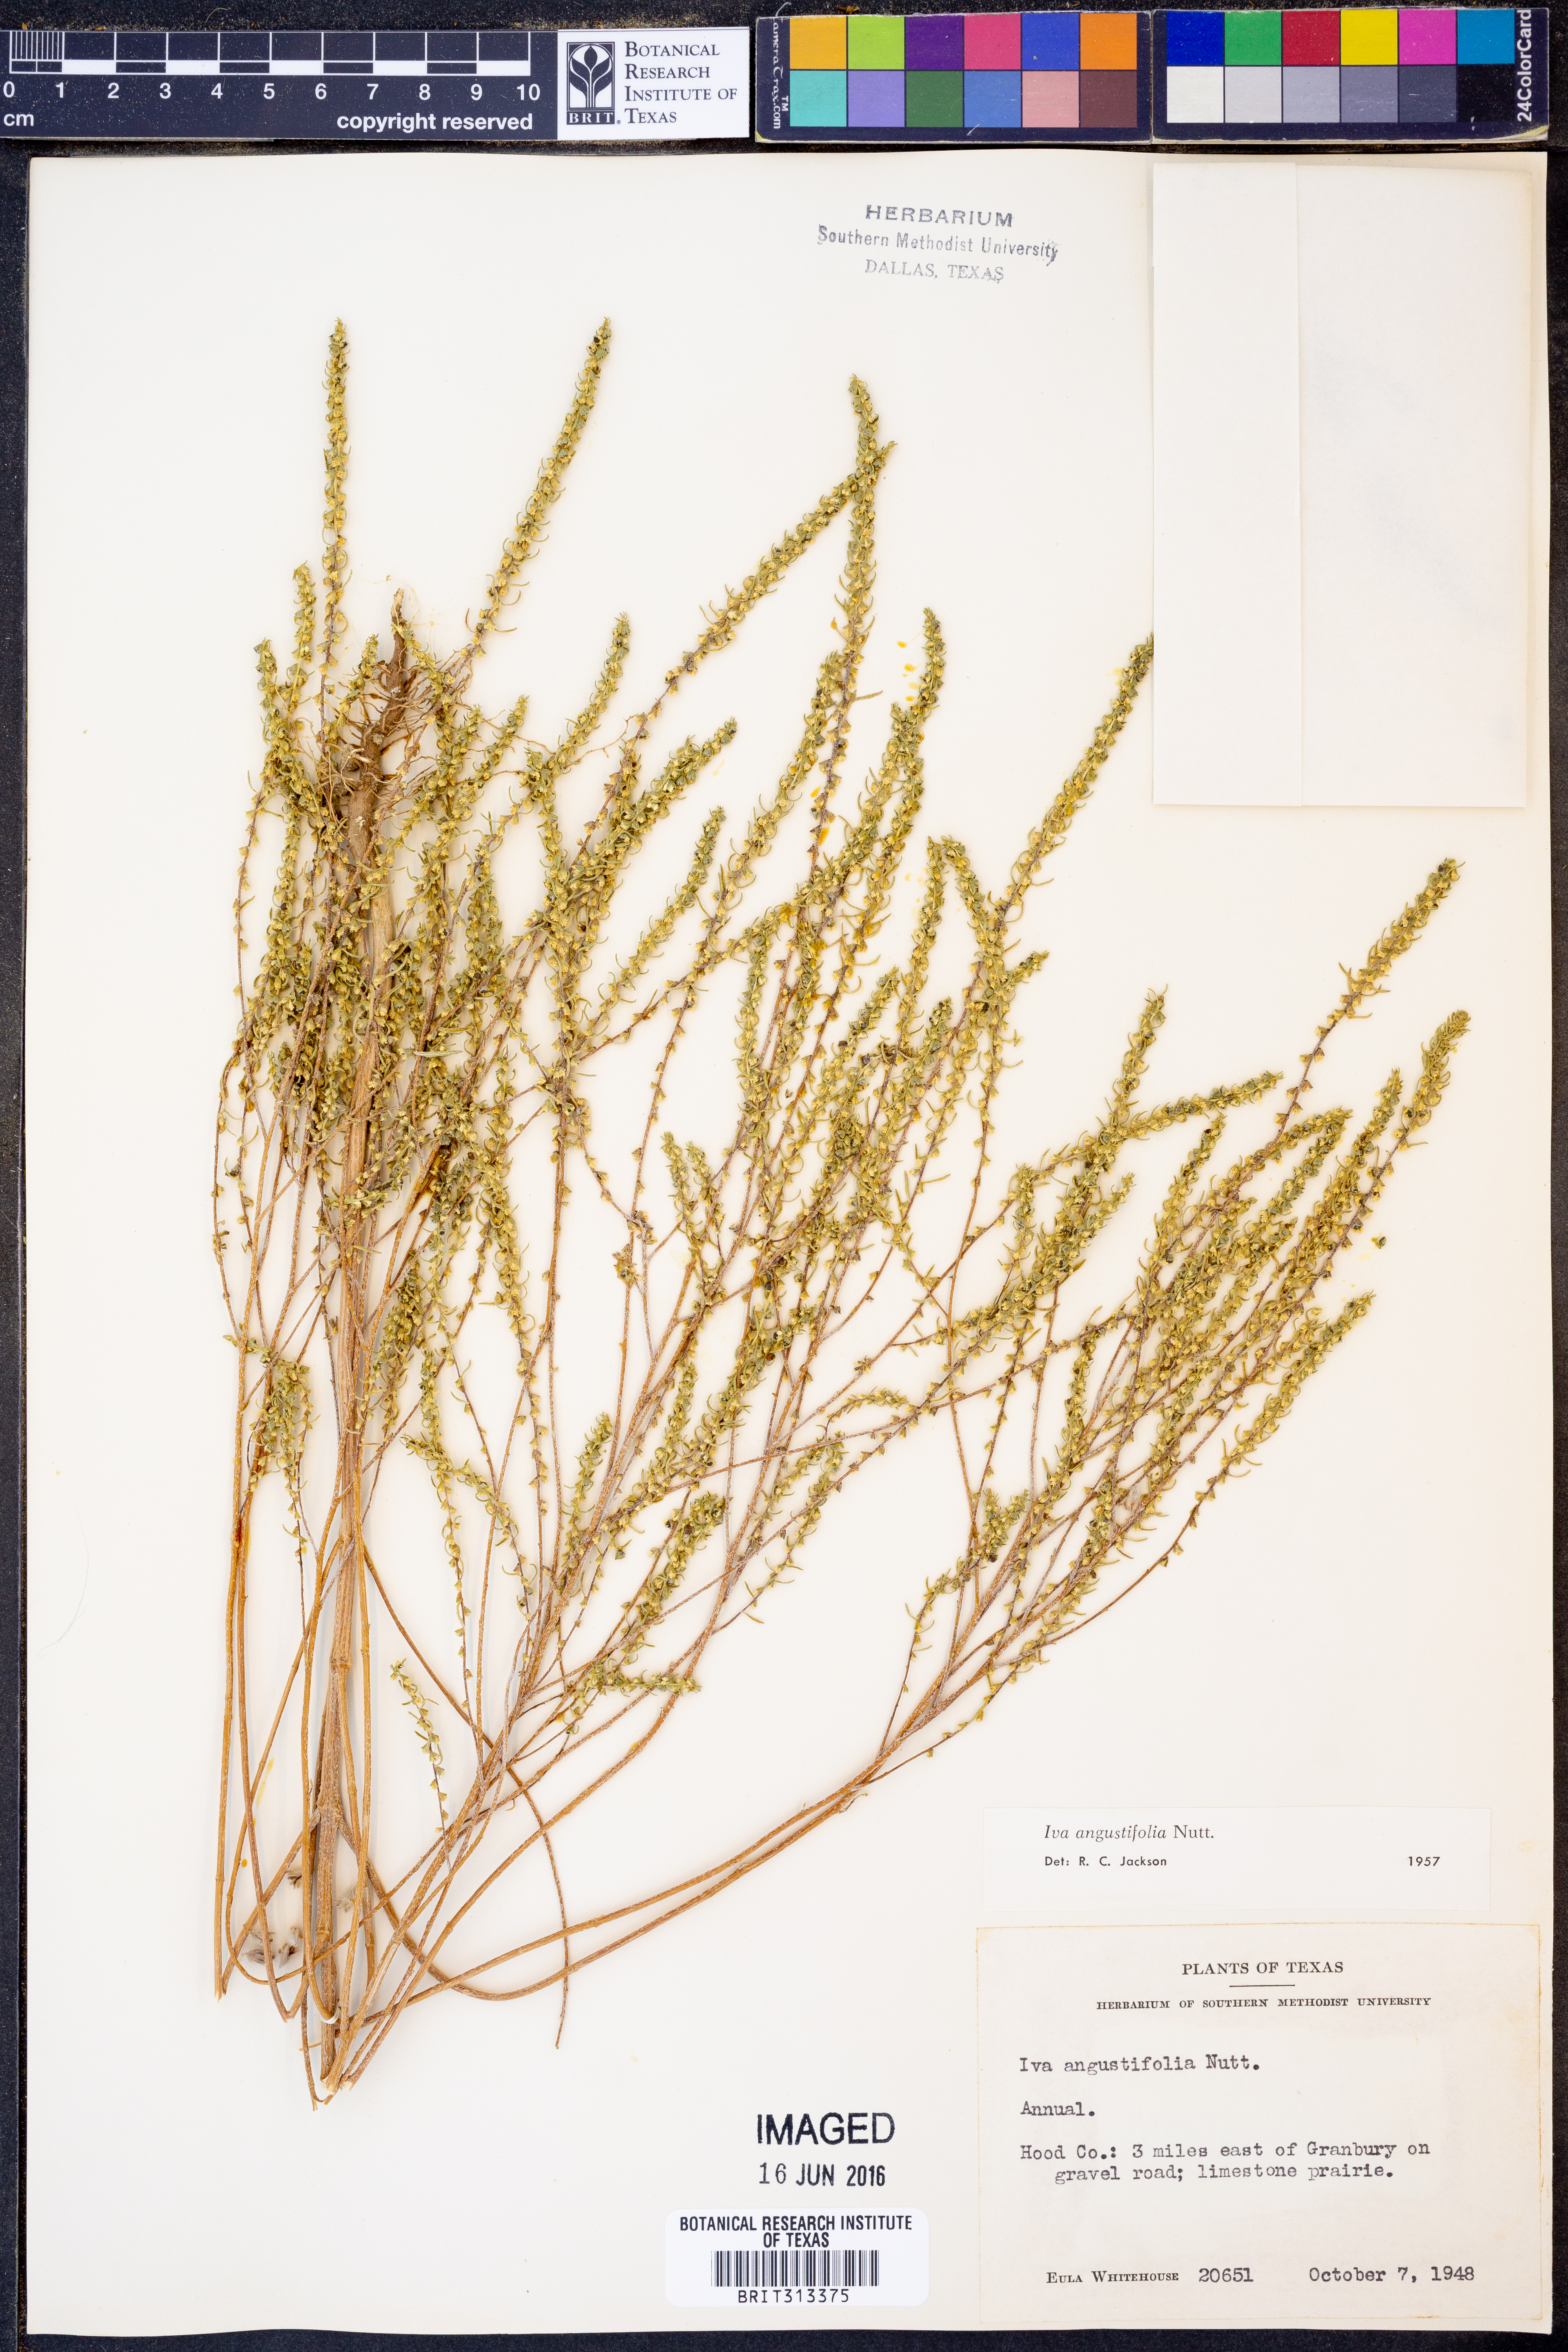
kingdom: Plantae
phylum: Tracheophyta
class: Magnoliopsida
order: Asterales
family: Asteraceae
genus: Iva
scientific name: Iva asperifolia
